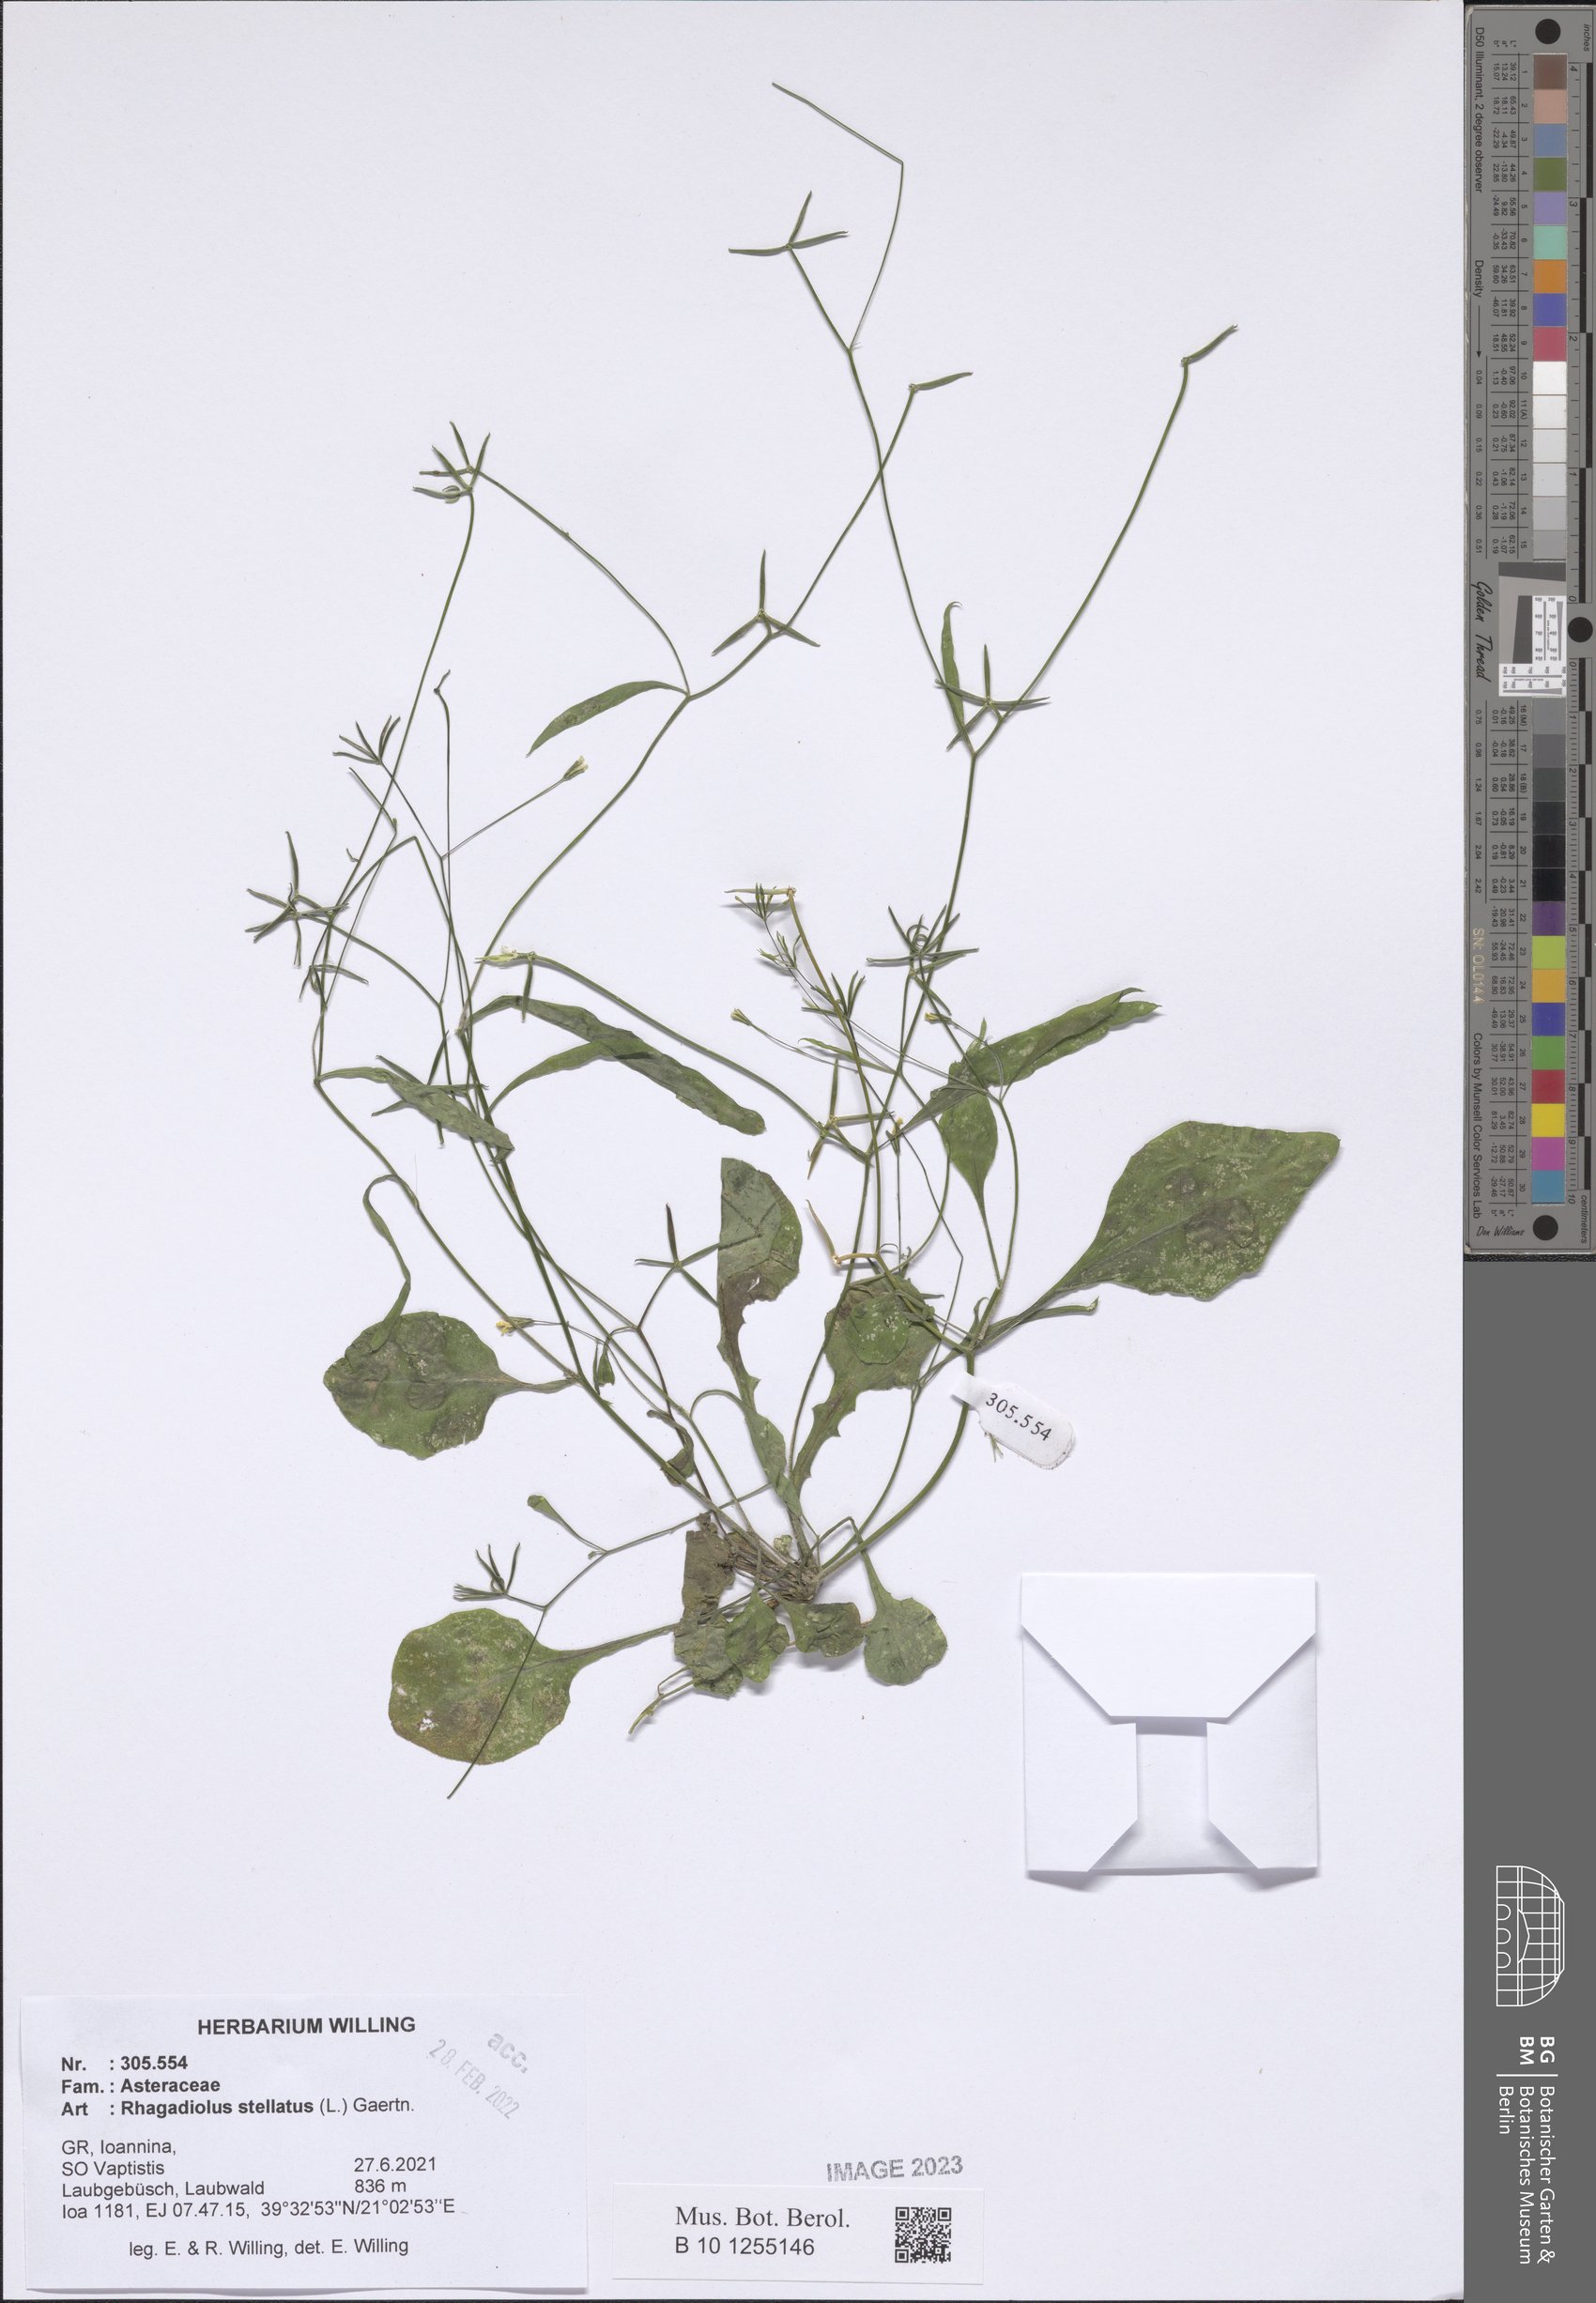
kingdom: Plantae
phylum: Tracheophyta
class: Magnoliopsida
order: Asterales
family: Asteraceae
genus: Rhagadiolus
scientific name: Rhagadiolus stellatus
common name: Star hawkbit
